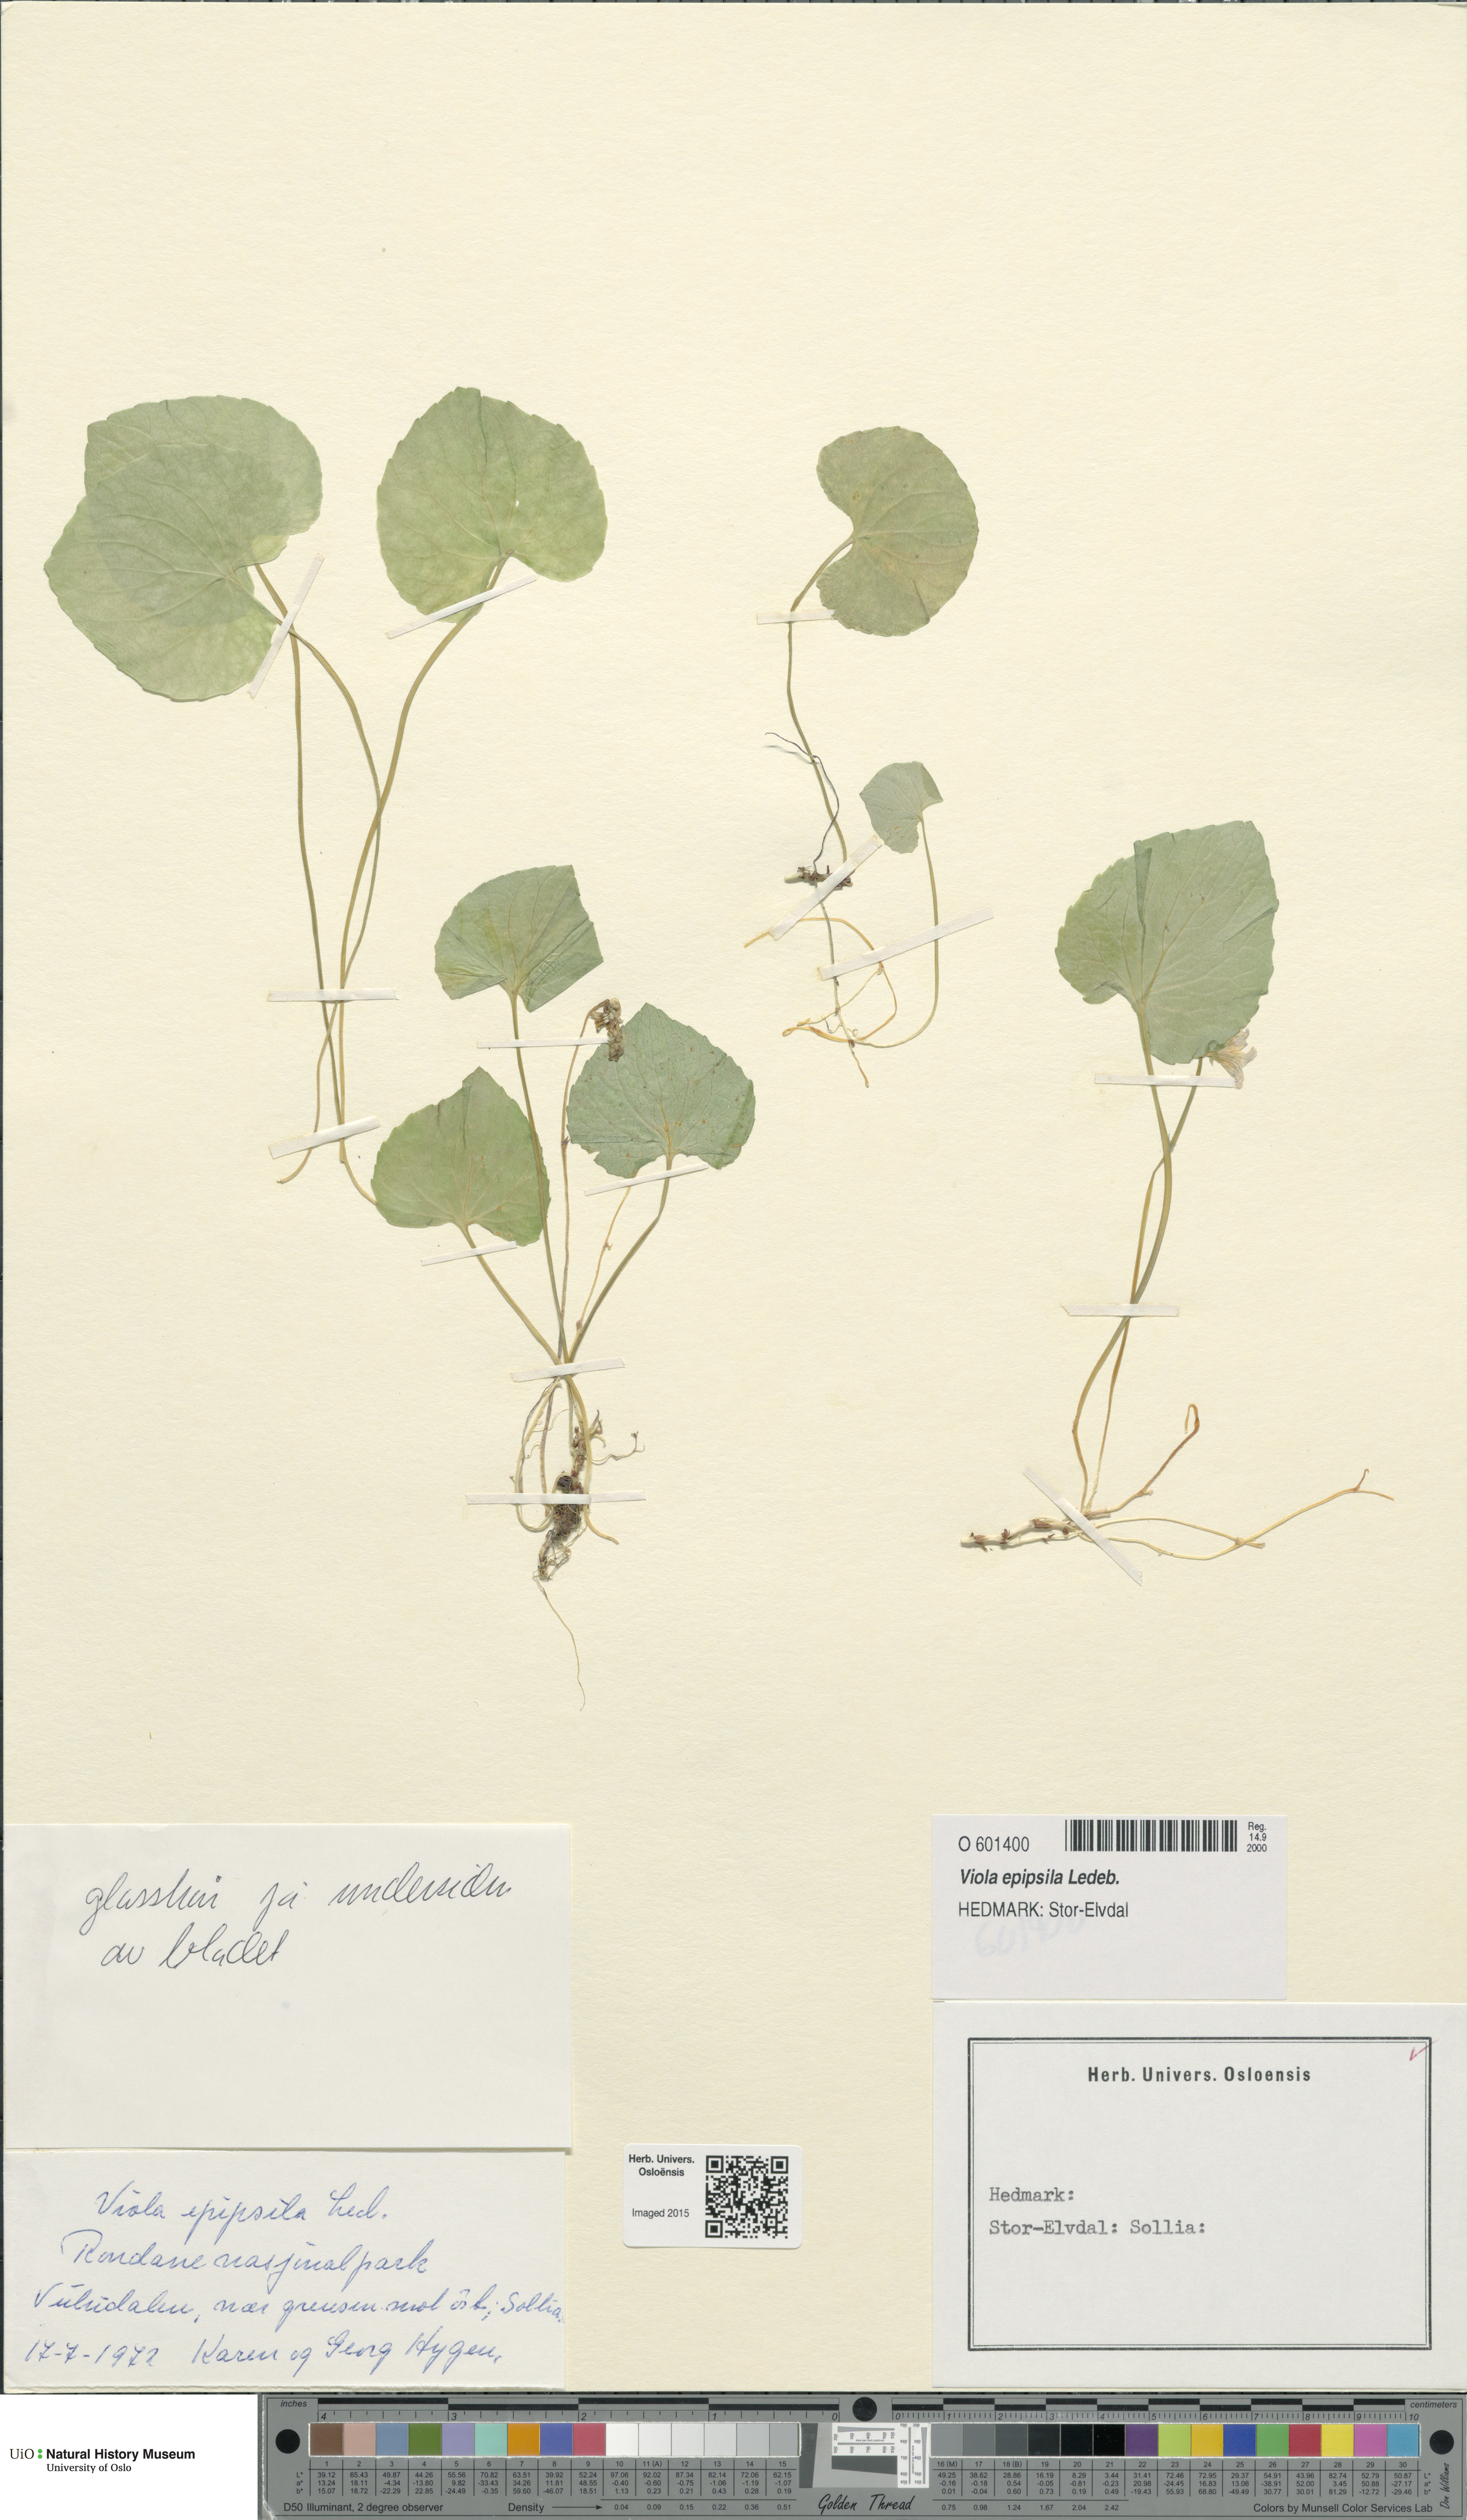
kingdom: Plantae
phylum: Tracheophyta
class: Magnoliopsida
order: Malpighiales
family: Violaceae
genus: Viola
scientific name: Viola epipsila
